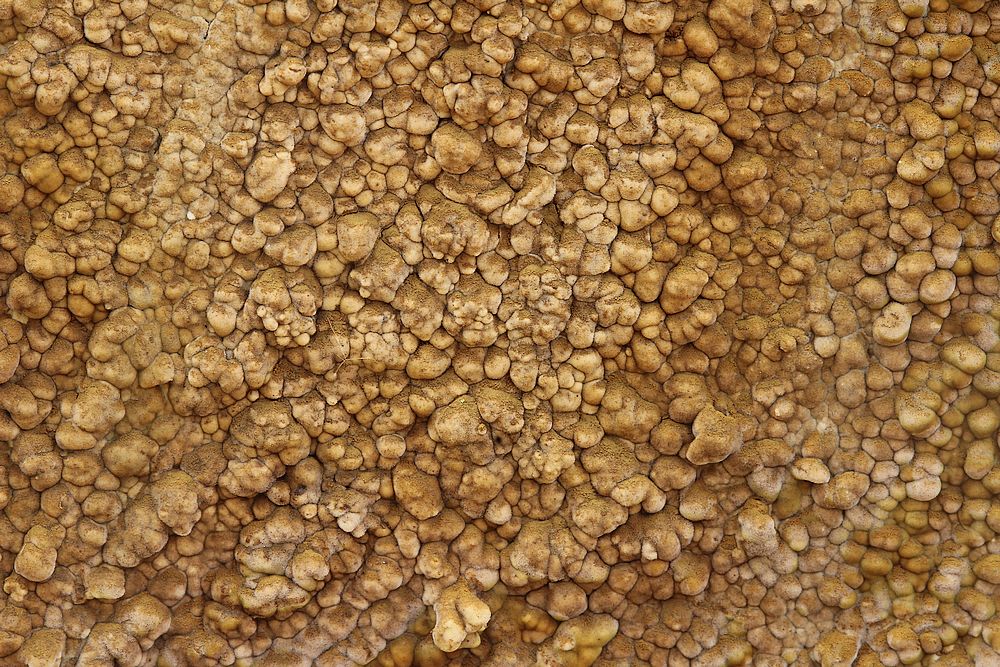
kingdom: Fungi
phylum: Basidiomycota
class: Agaricomycetes
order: Boletales
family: Coniophoraceae
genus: Coniophora
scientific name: Coniophora puteana
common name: gul tømmersvamp
